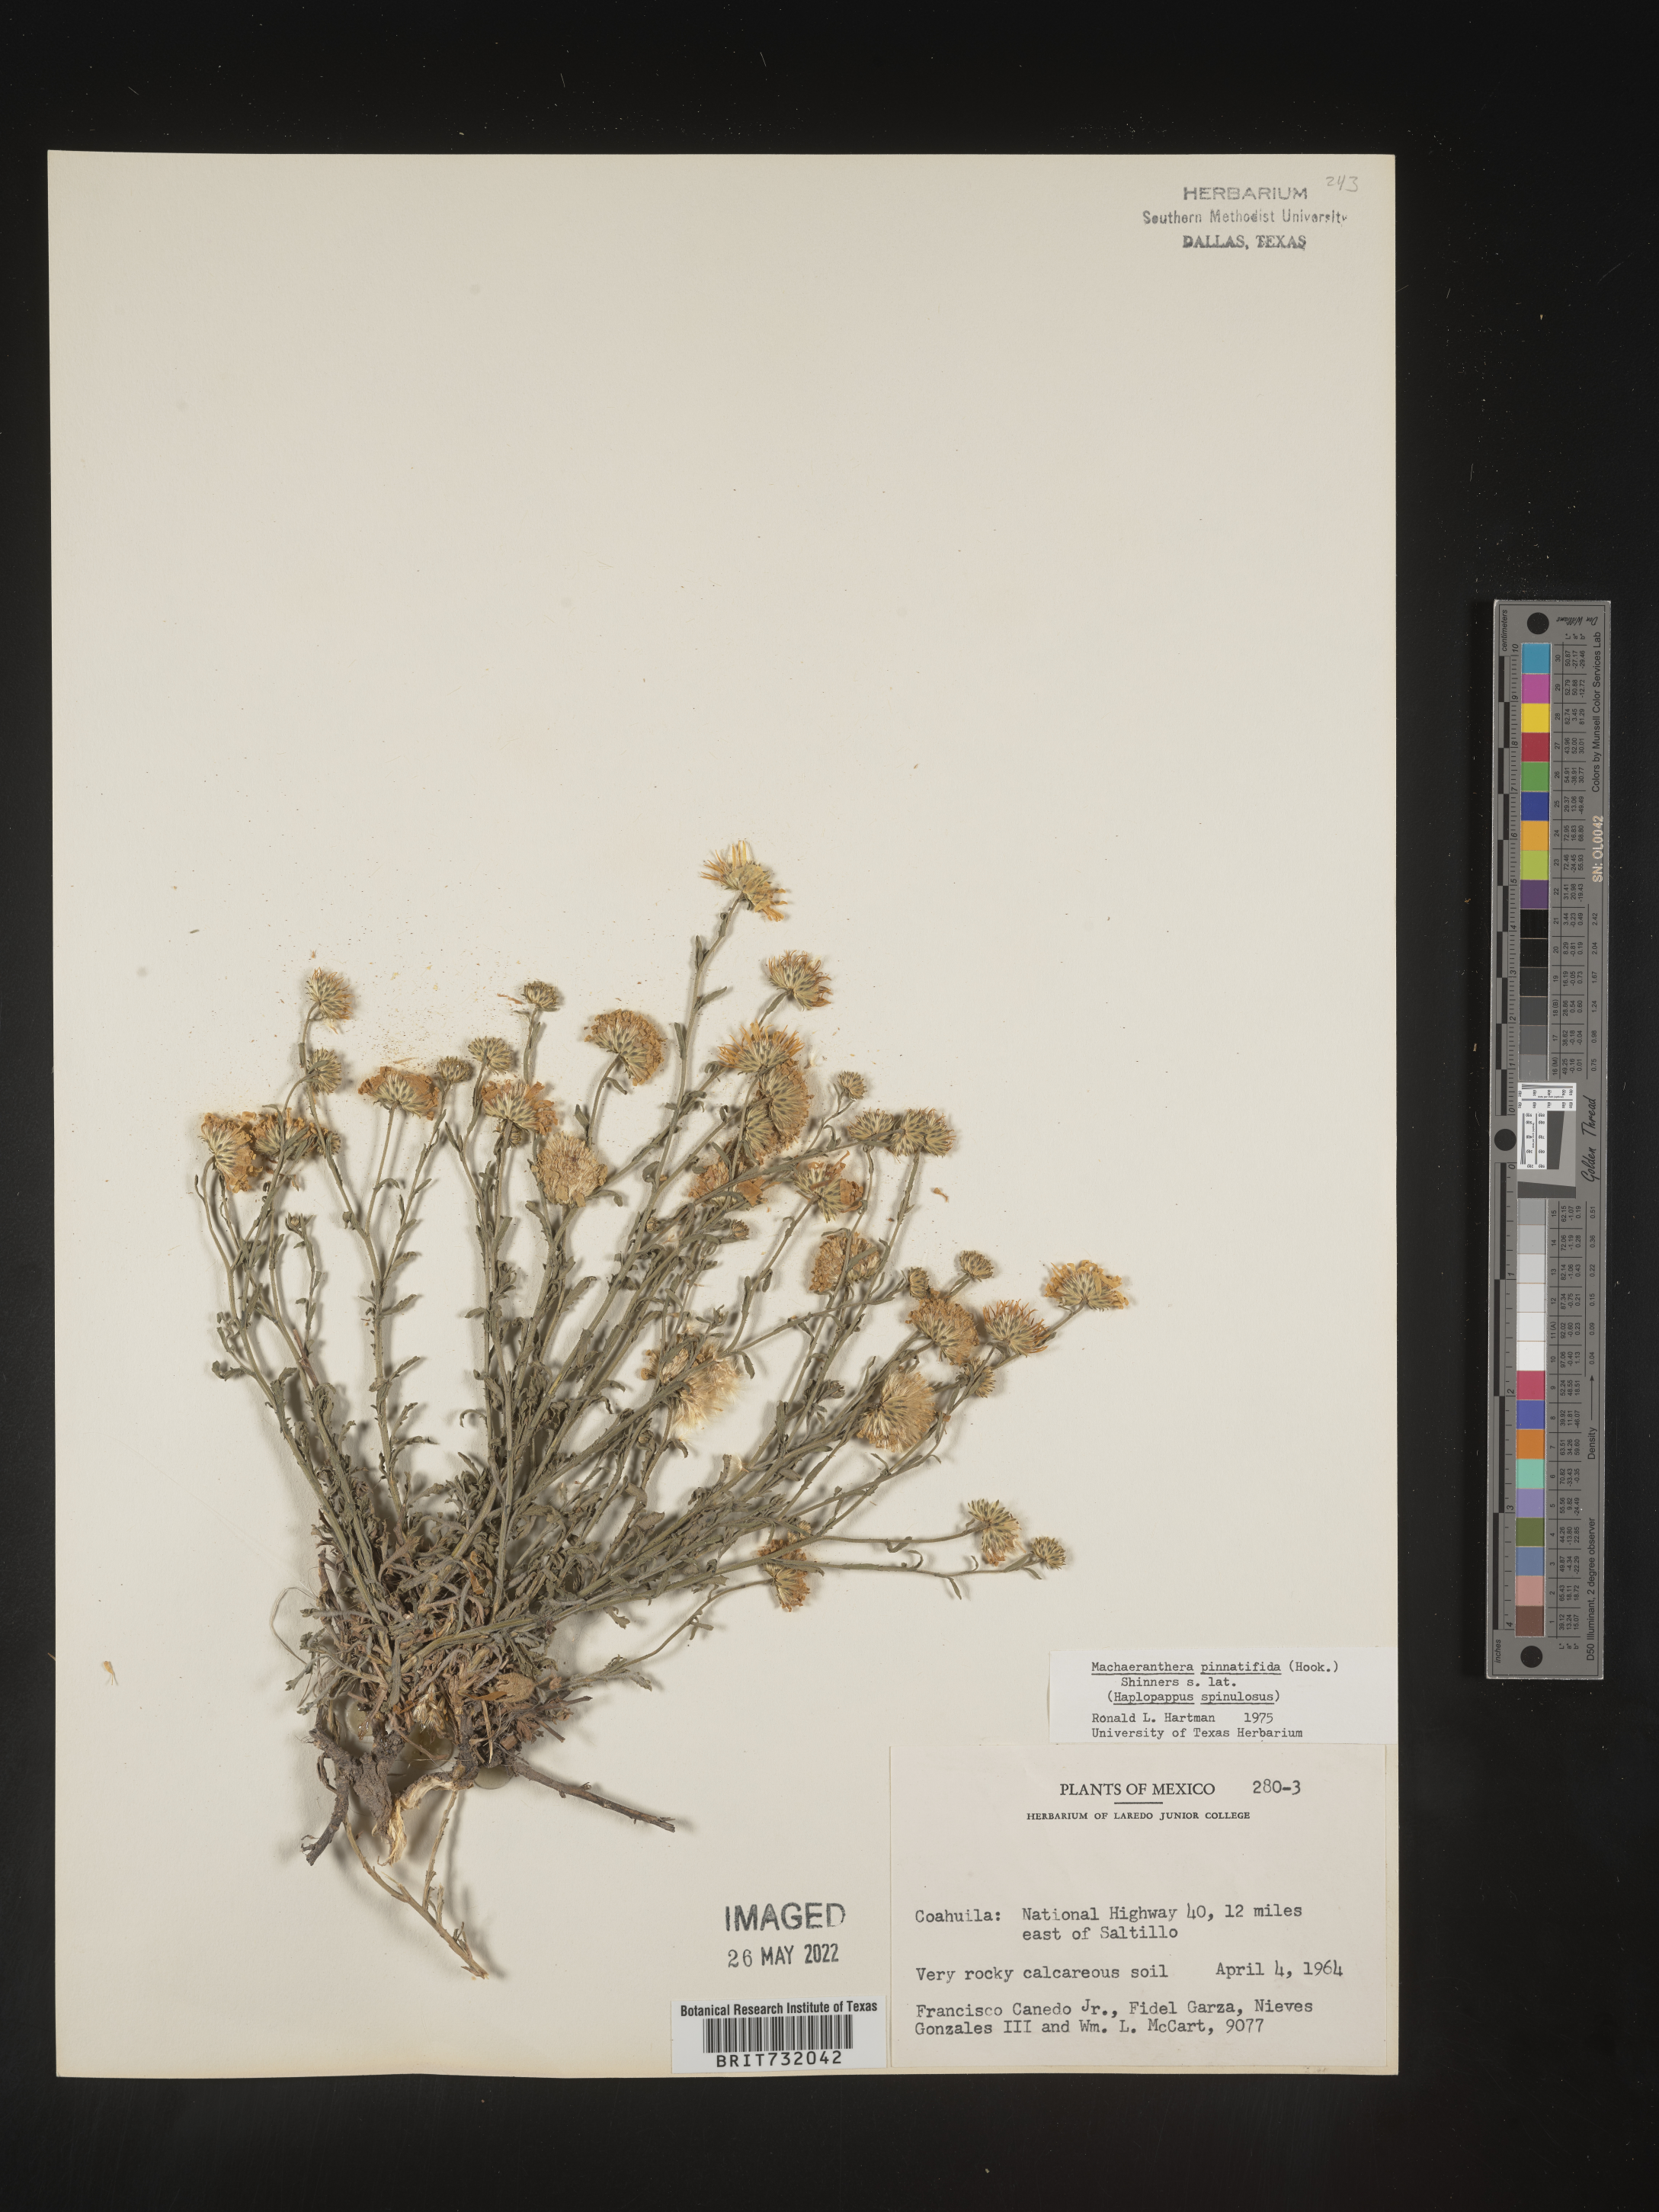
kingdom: Plantae
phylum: Tracheophyta
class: Magnoliopsida
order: Asterales
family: Asteraceae
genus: Xanthisma
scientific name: Xanthisma spinulosum
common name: Spiny goldenweed
